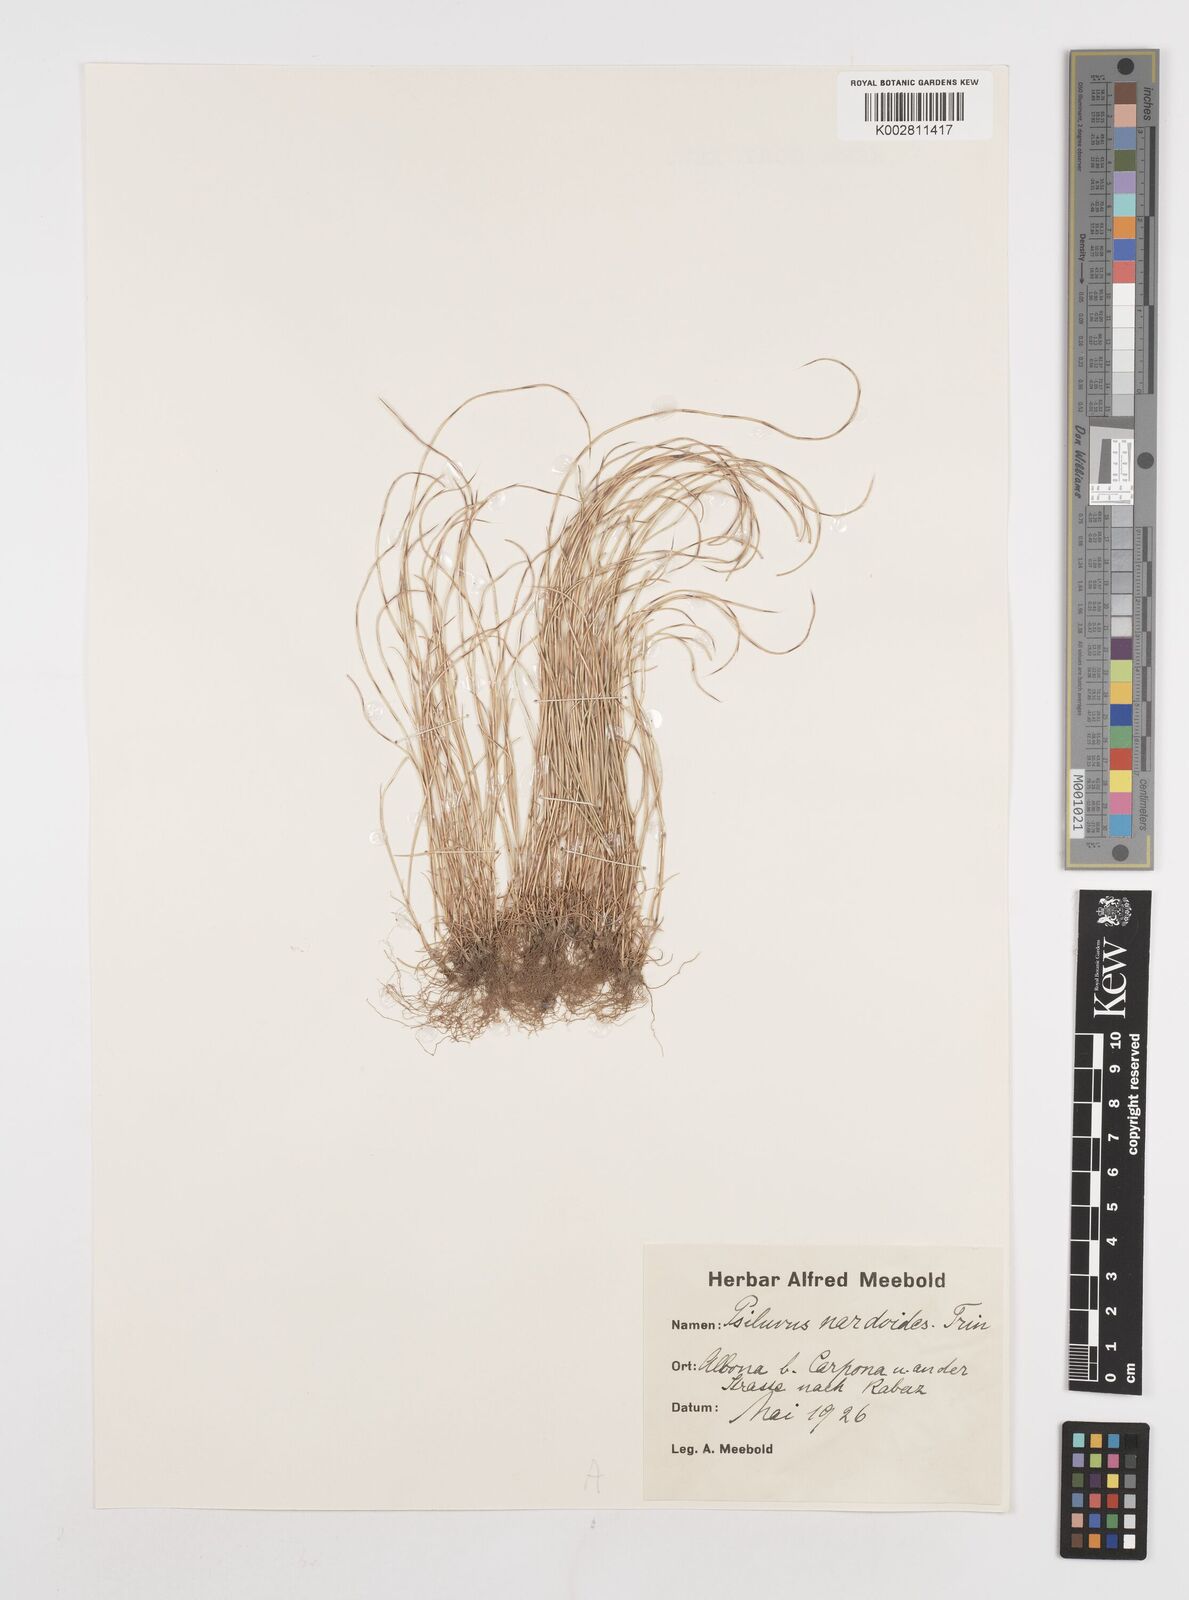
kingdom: Plantae
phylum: Tracheophyta
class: Liliopsida
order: Poales
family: Poaceae
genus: Festuca
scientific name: Festuca incurva
